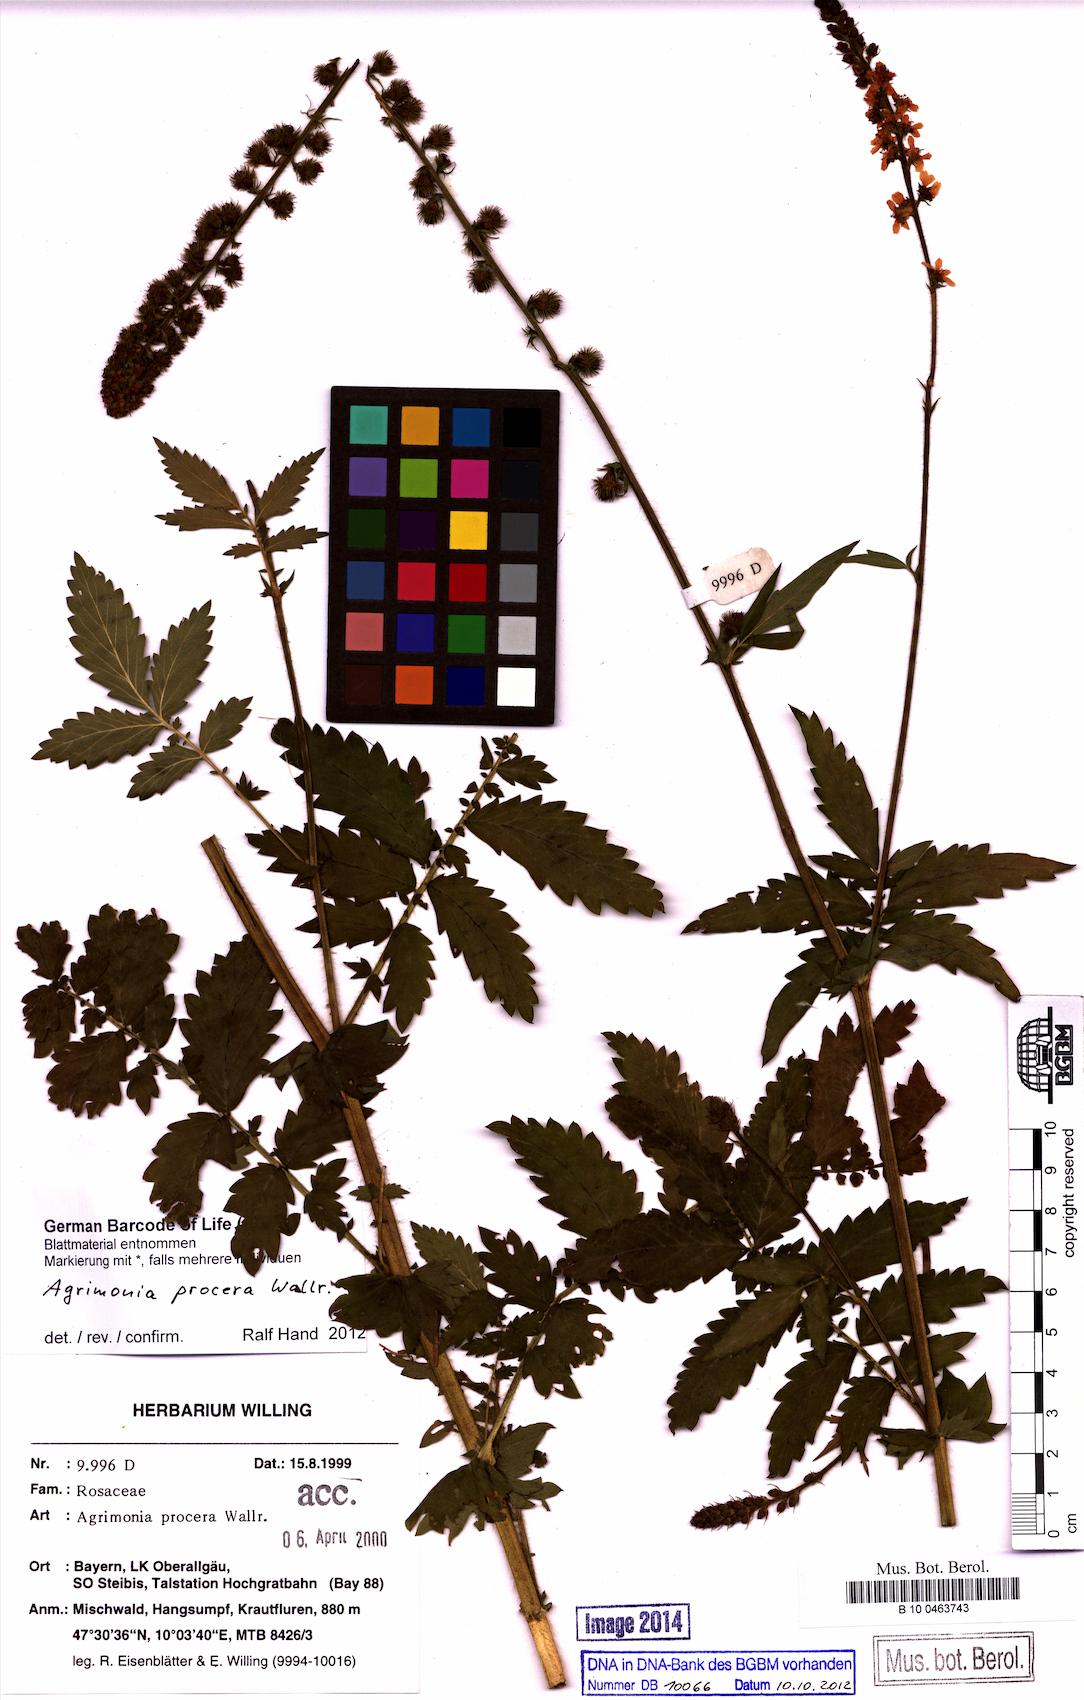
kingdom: Plantae
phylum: Tracheophyta
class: Magnoliopsida
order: Rosales
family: Rosaceae
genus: Agrimonia
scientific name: Agrimonia procera
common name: Fragrant agrimony
